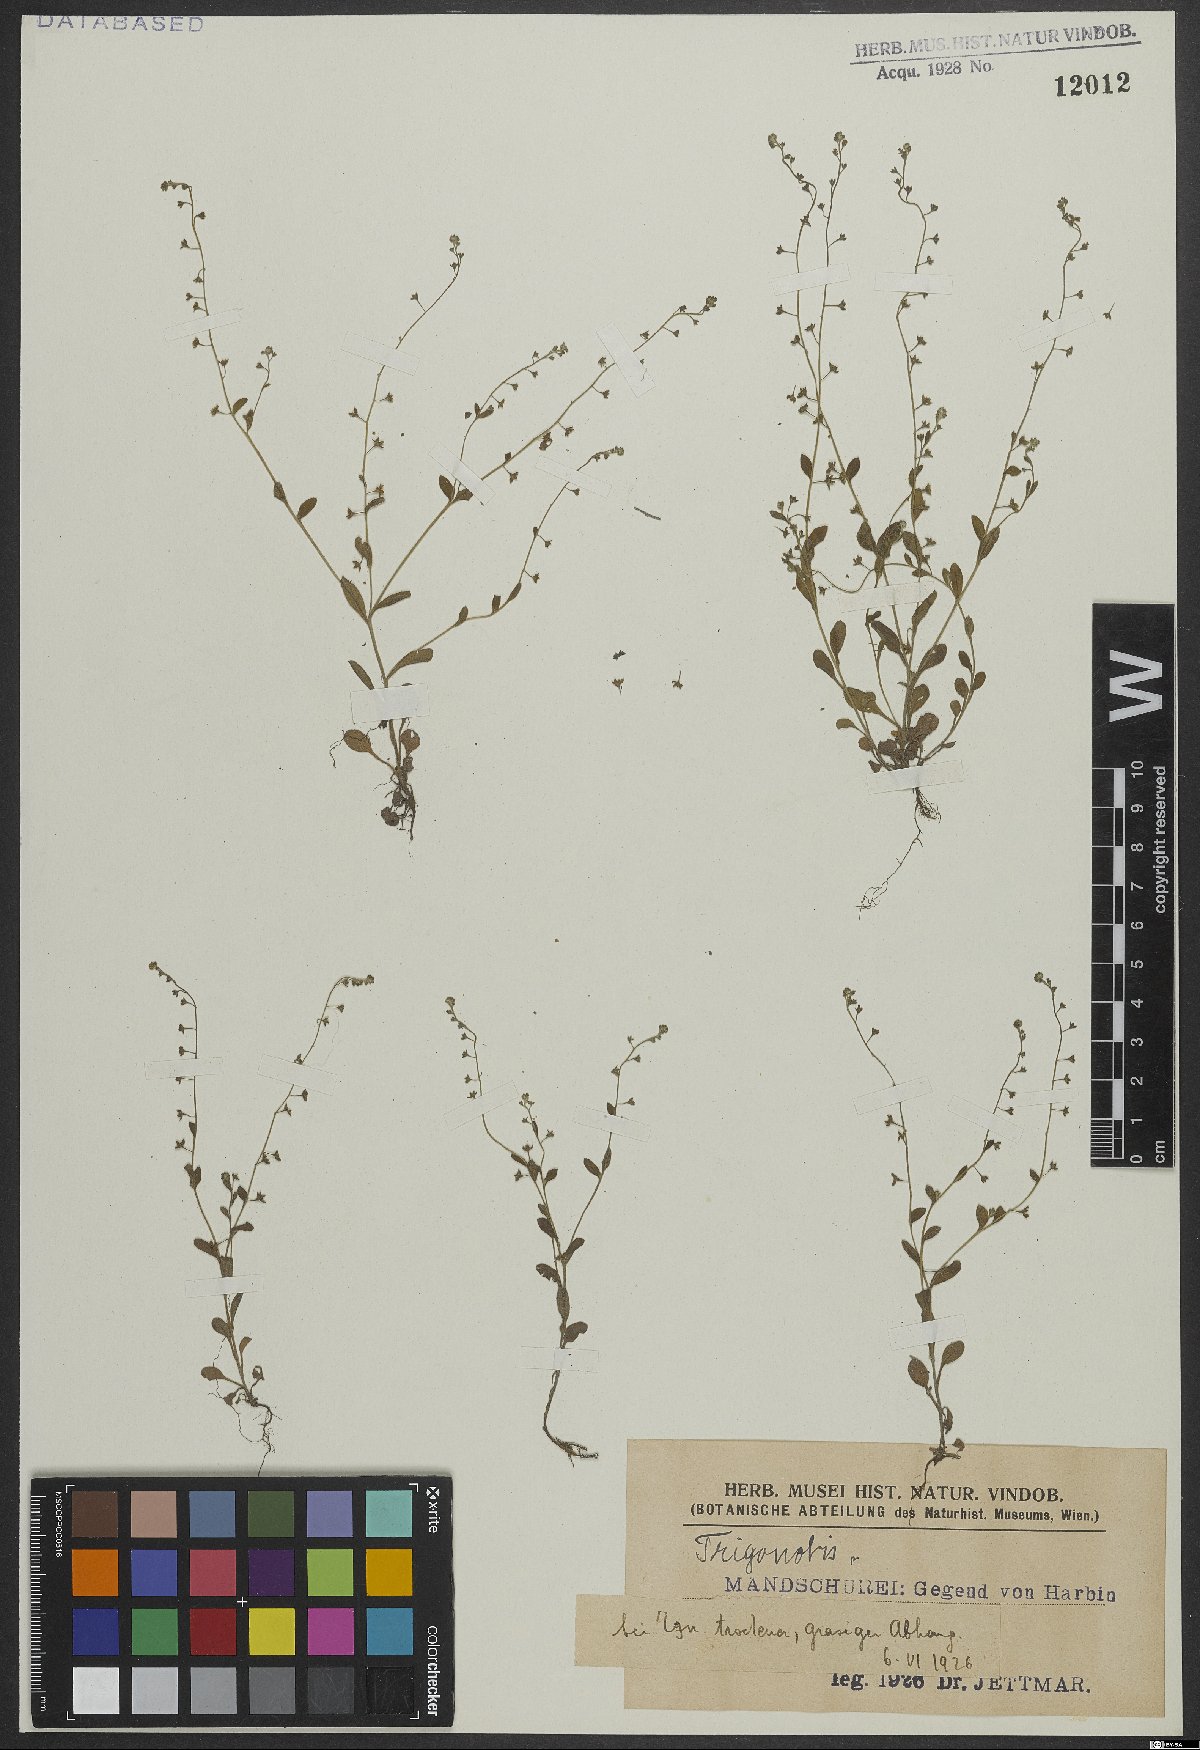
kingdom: Plantae
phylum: Tracheophyta
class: Magnoliopsida
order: Boraginales
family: Boraginaceae
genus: Trigonotis
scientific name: Trigonotis
